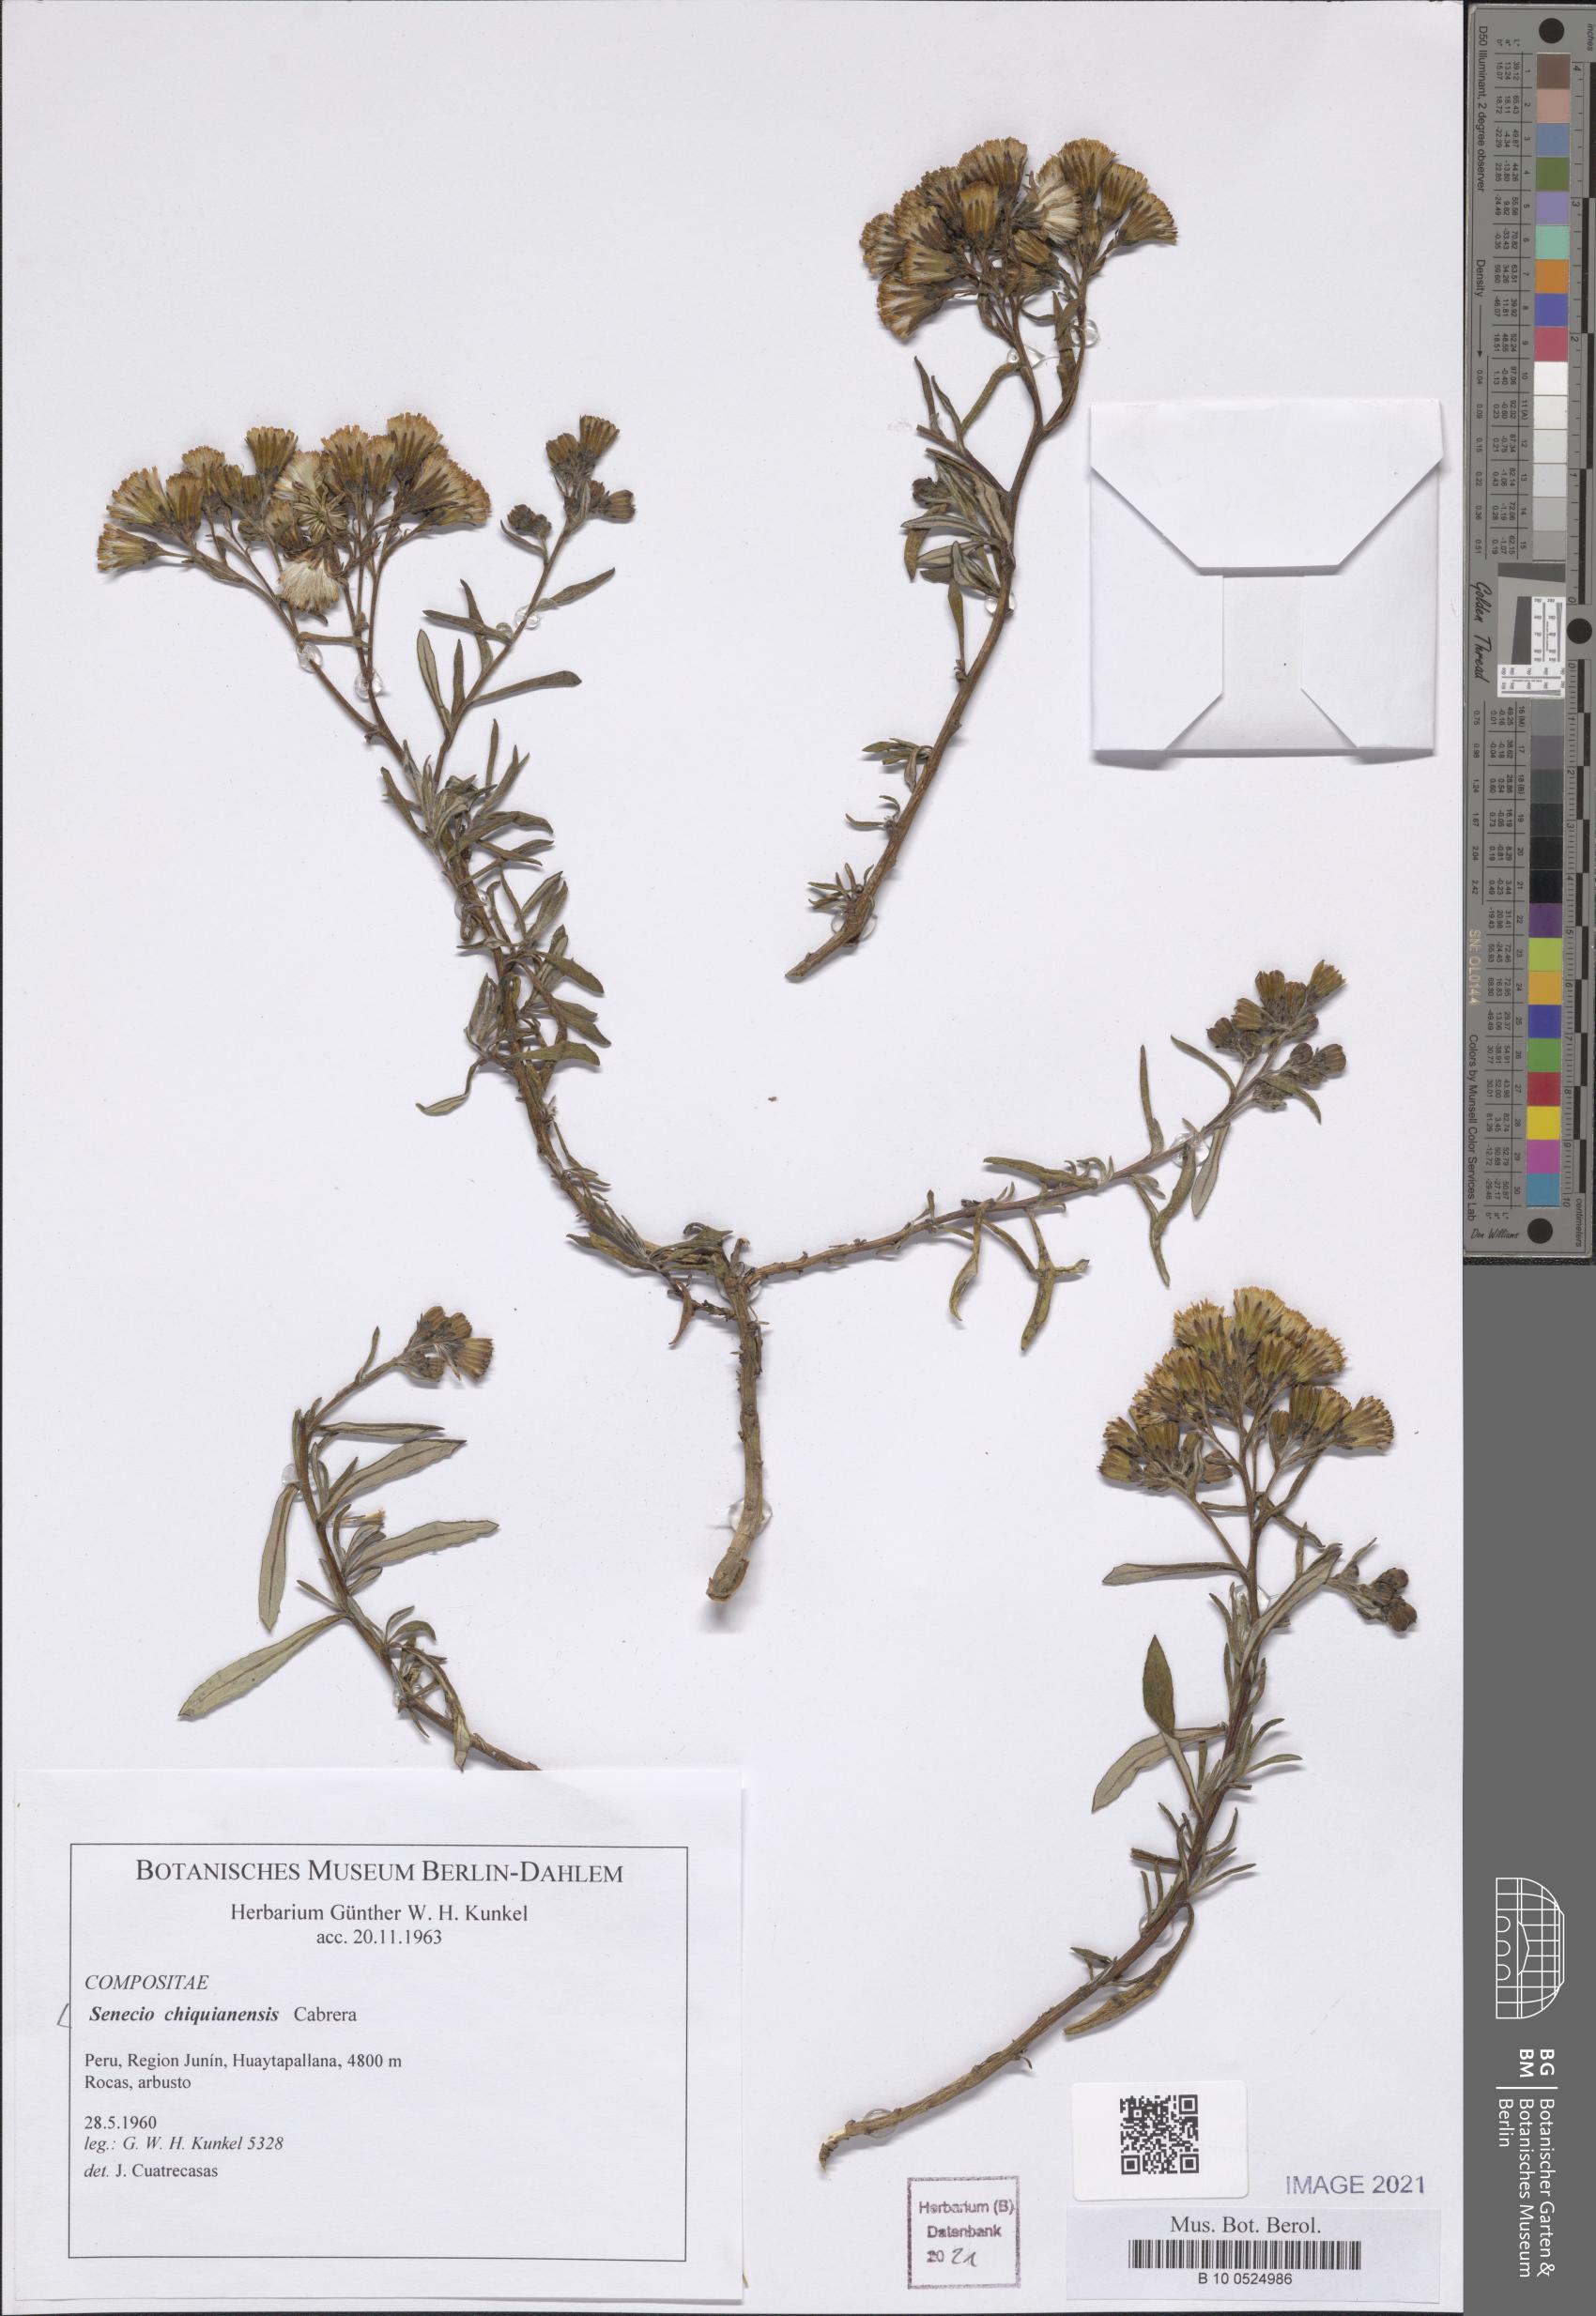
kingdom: Plantae
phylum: Tracheophyta
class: Magnoliopsida
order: Asterales
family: Asteraceae
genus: Senecio
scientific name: Senecio chiquianensis
